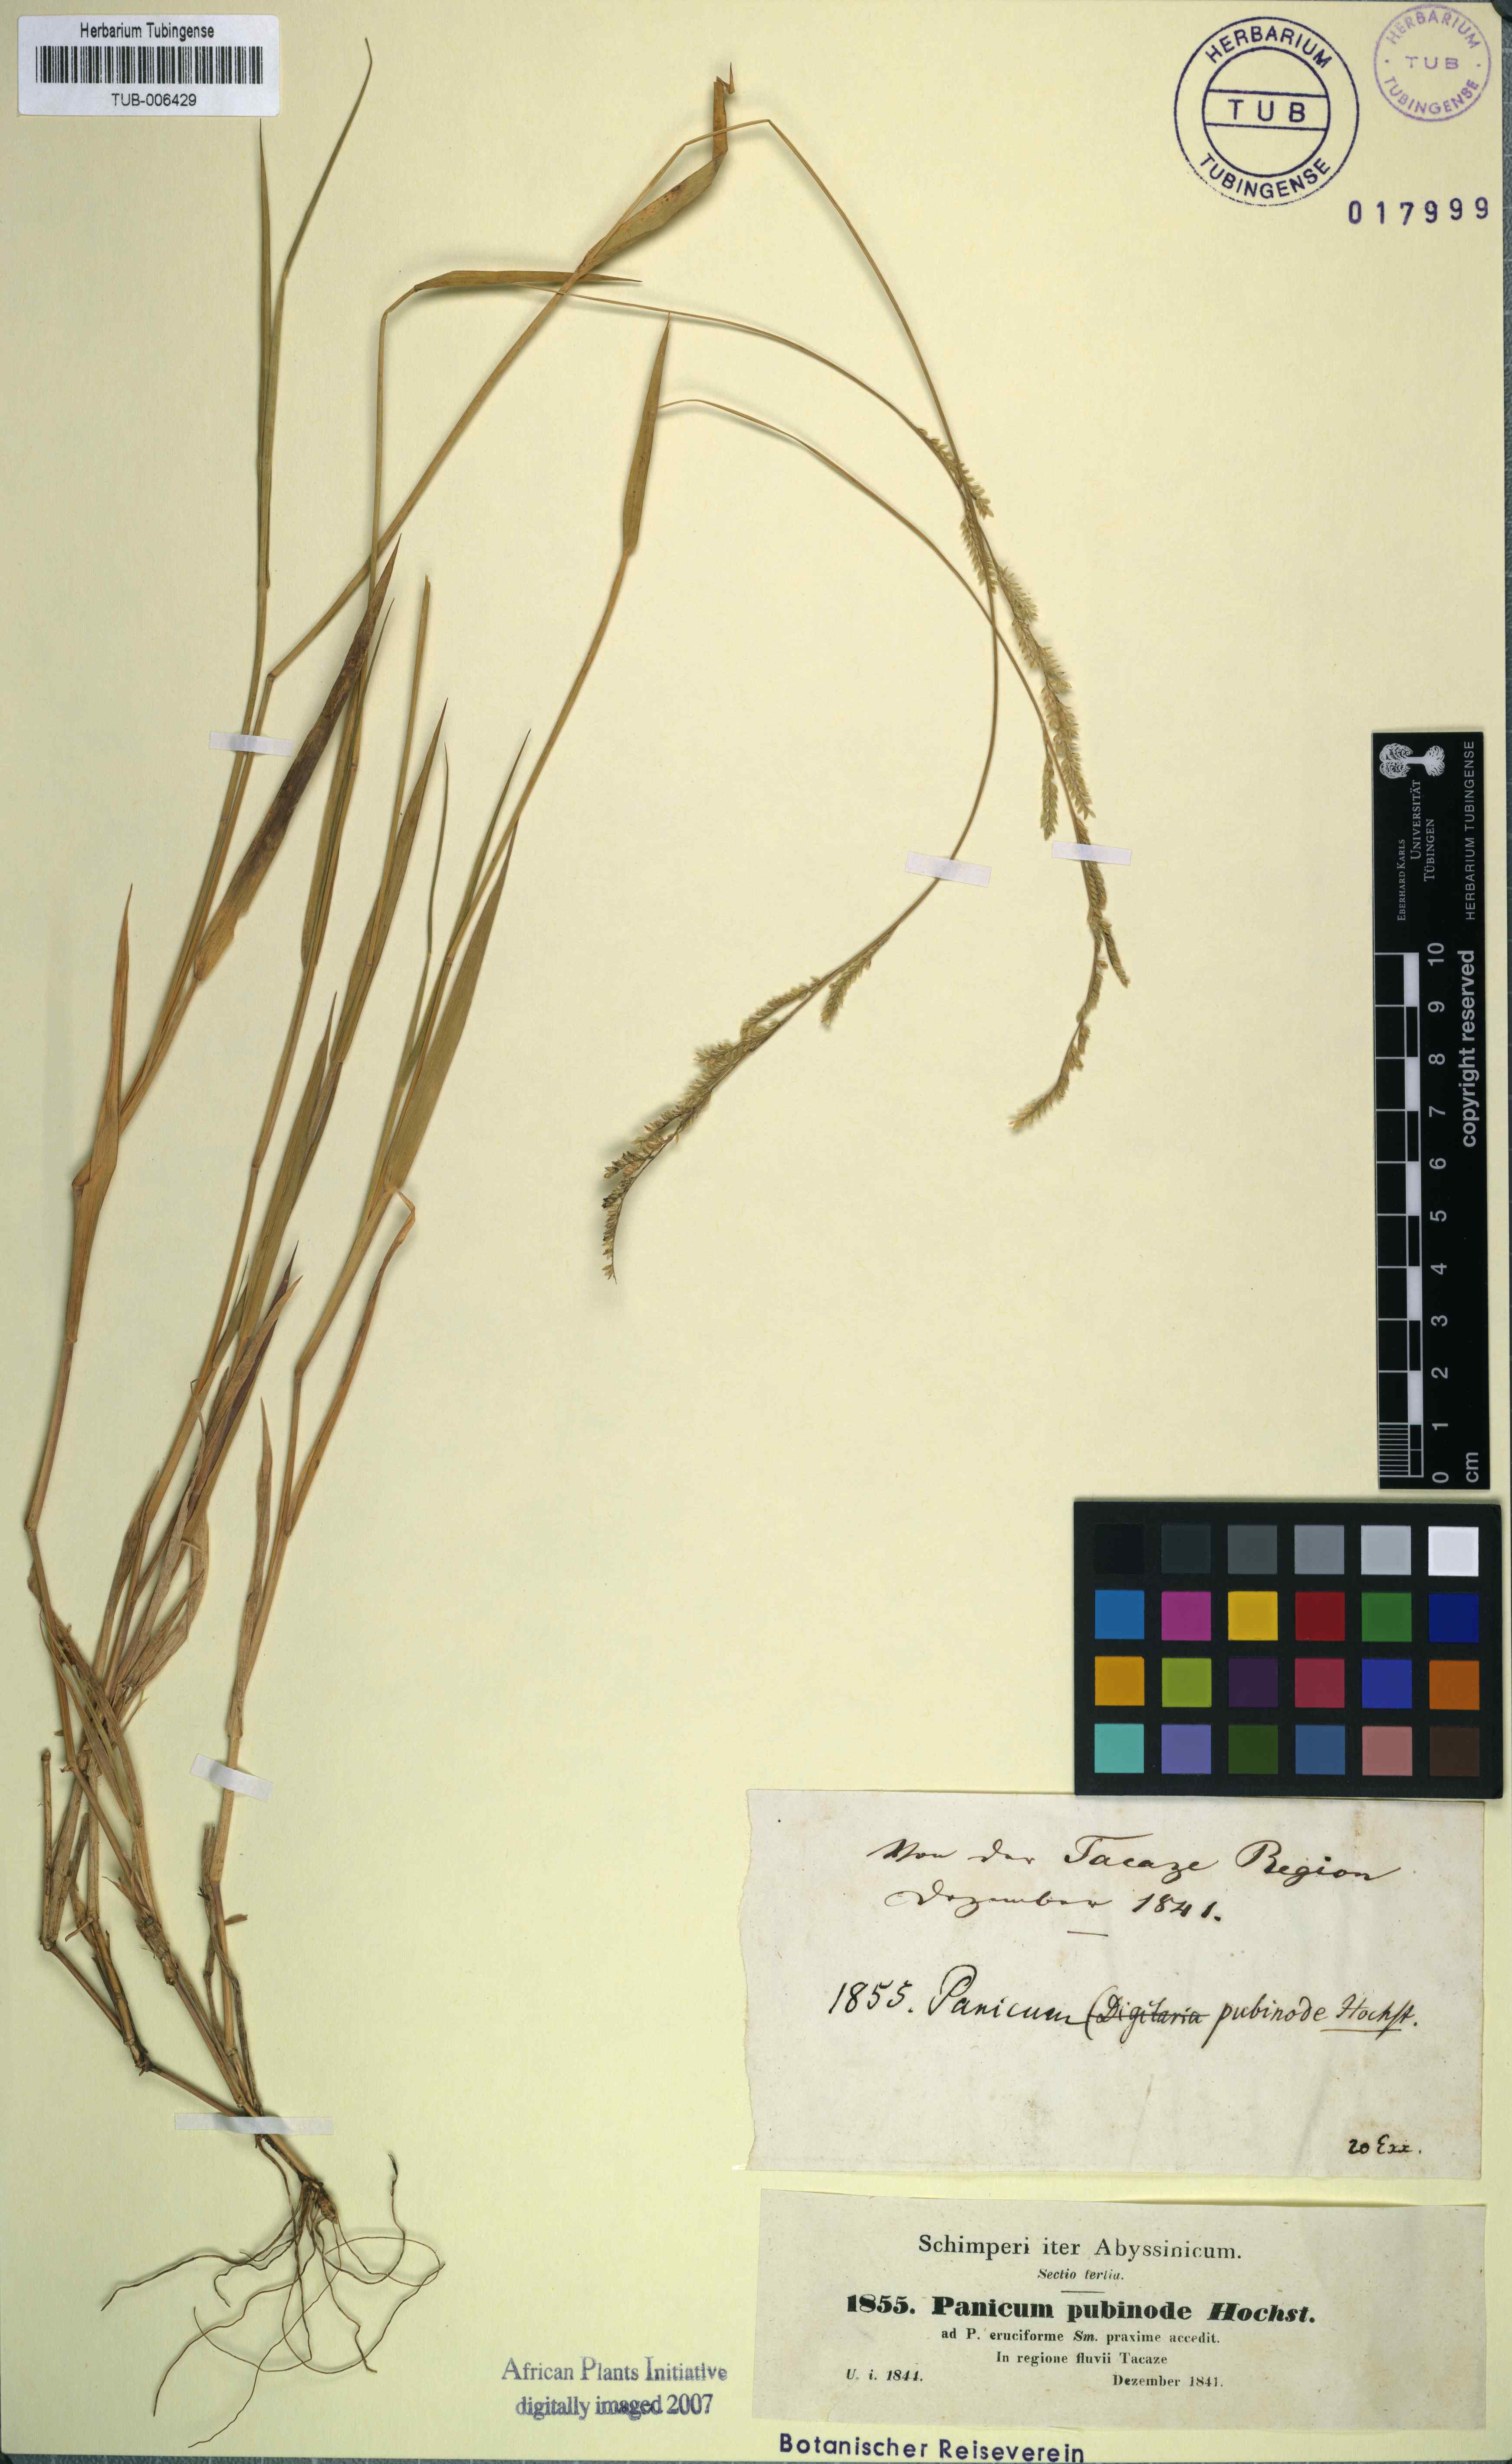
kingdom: Plantae
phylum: Tracheophyta
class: Liliopsida
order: Poales
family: Poaceae
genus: Moorochloa
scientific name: Moorochloa eruciformis
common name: Sweet signalgrass
